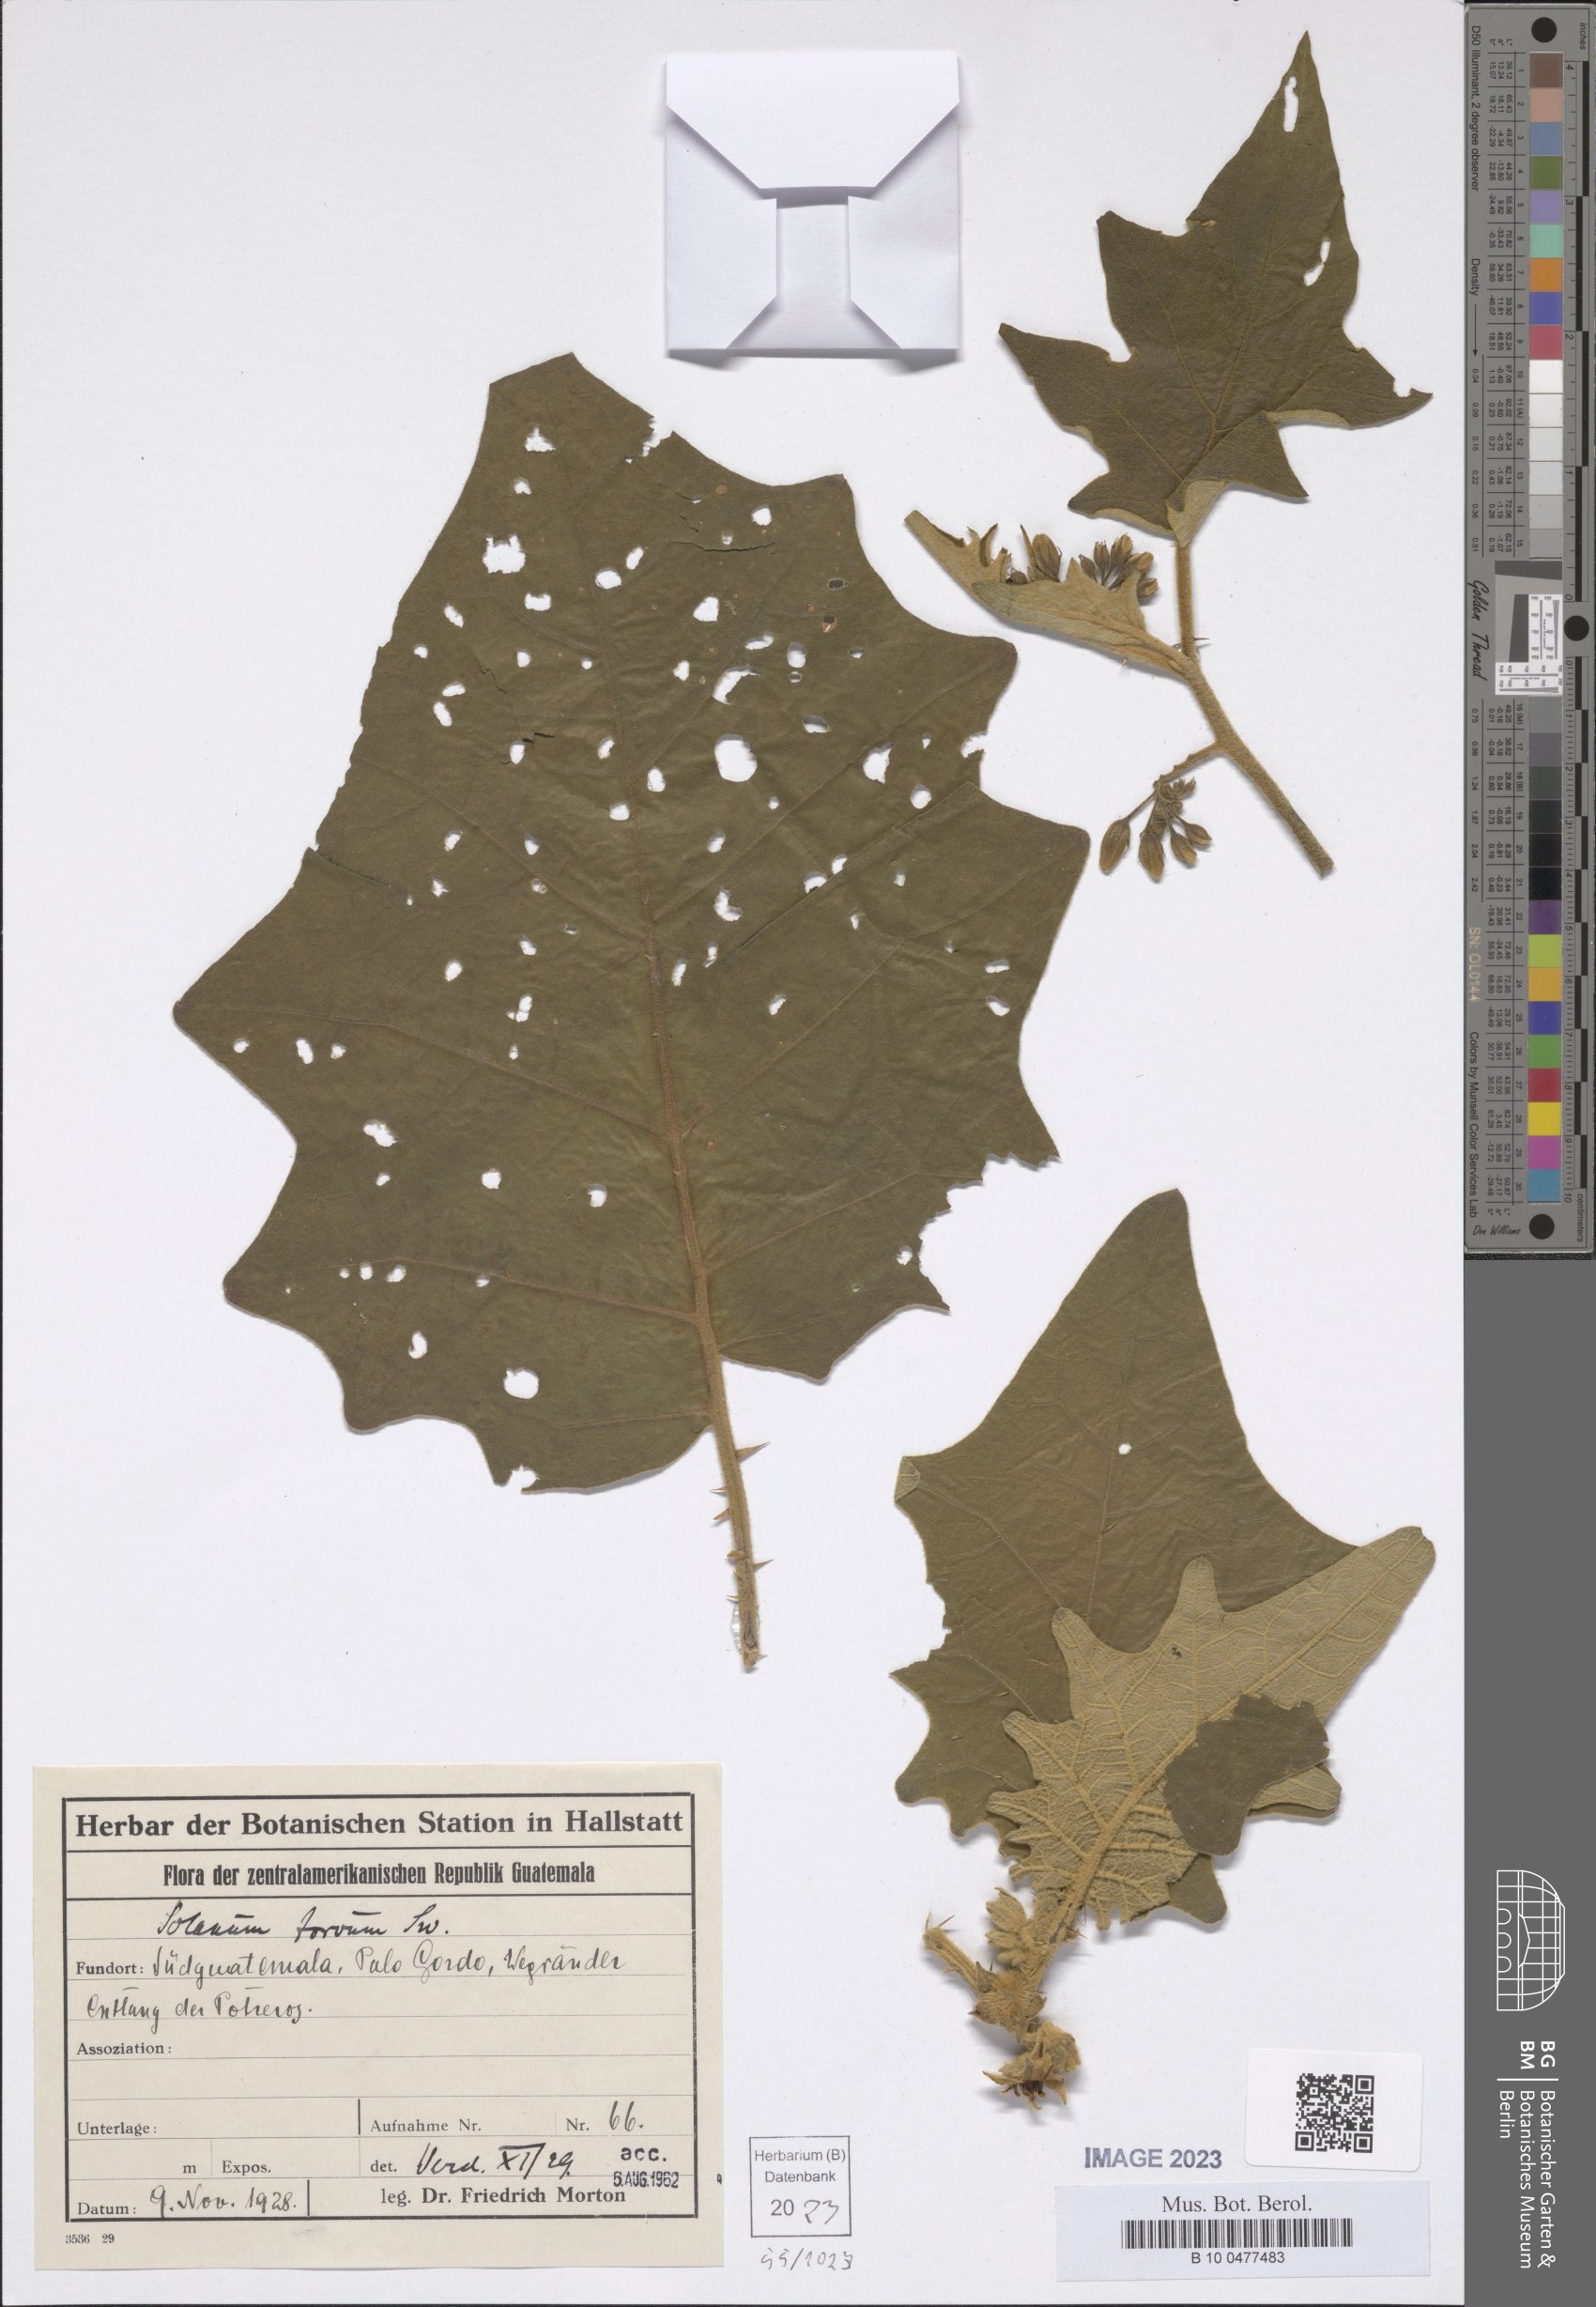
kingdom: Plantae
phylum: Tracheophyta
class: Magnoliopsida
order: Solanales
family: Solanaceae
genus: Solanum
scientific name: Solanum torvum
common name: Turkey berry
